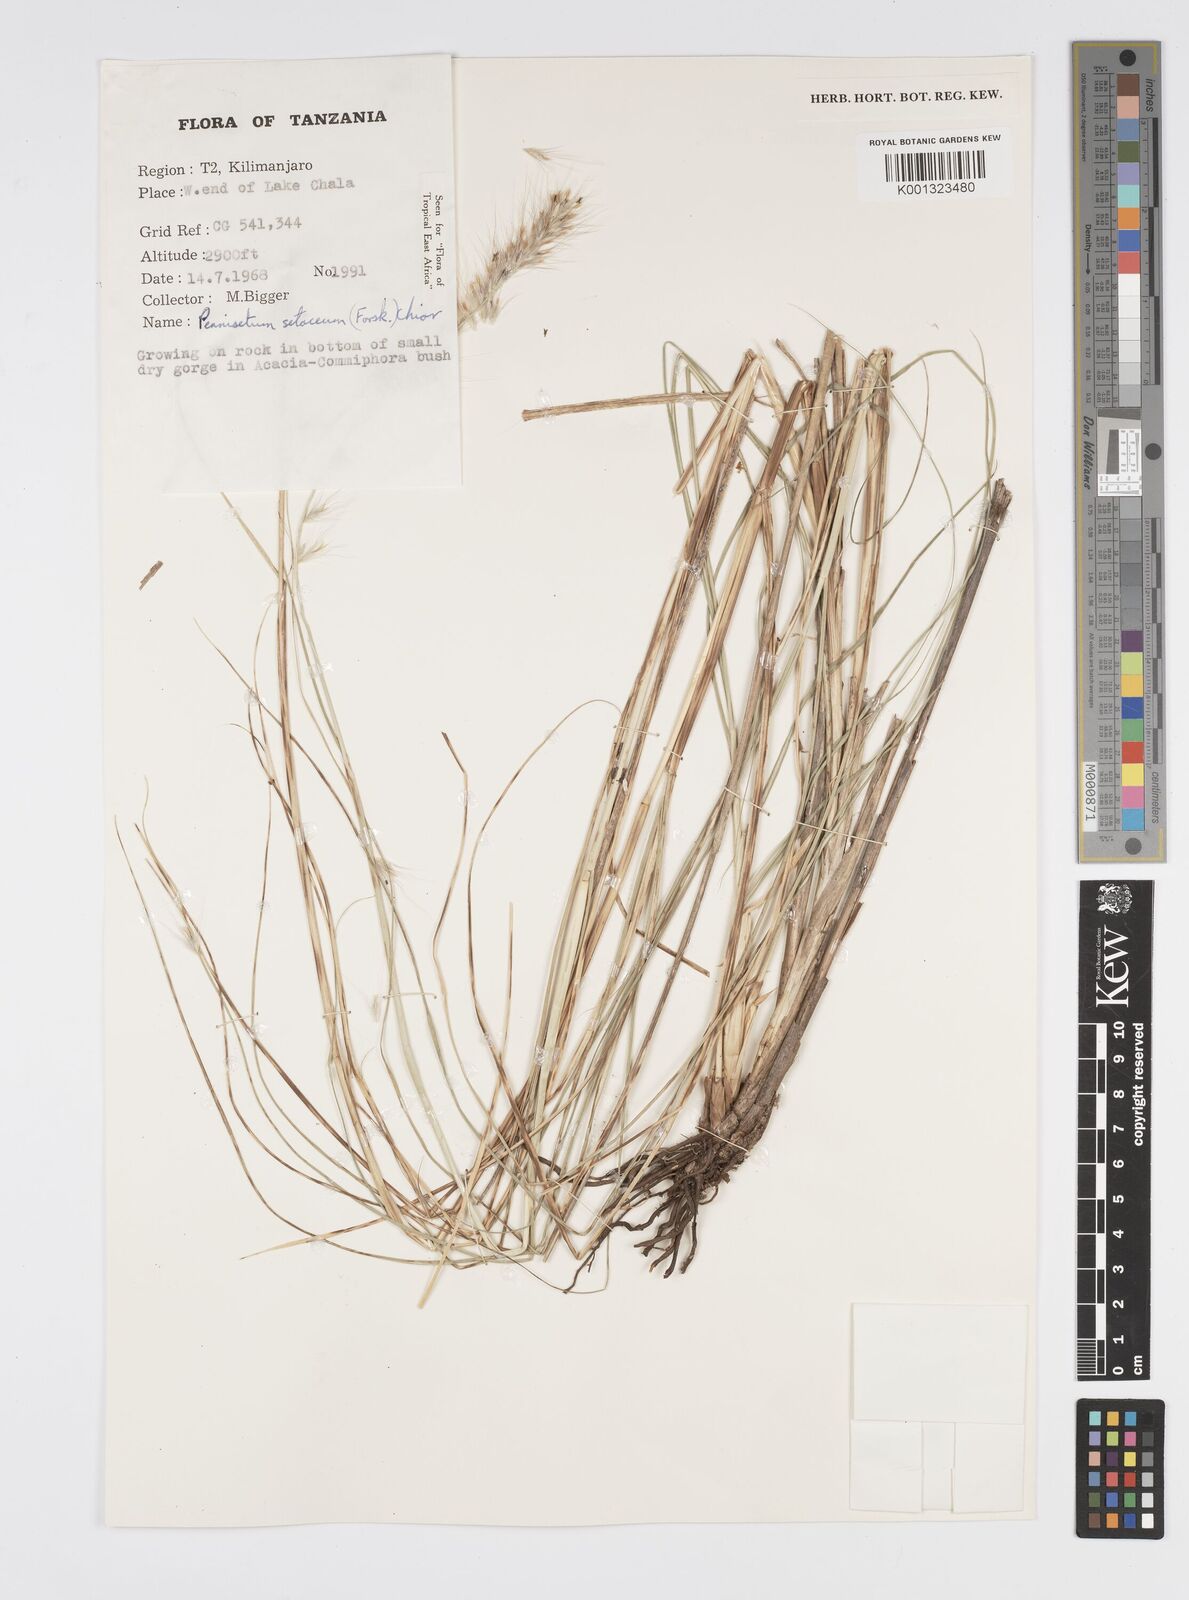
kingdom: Plantae
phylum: Tracheophyta
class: Liliopsida
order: Poales
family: Poaceae
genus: Cenchrus
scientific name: Cenchrus setaceus
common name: Crimson fountaingrass
